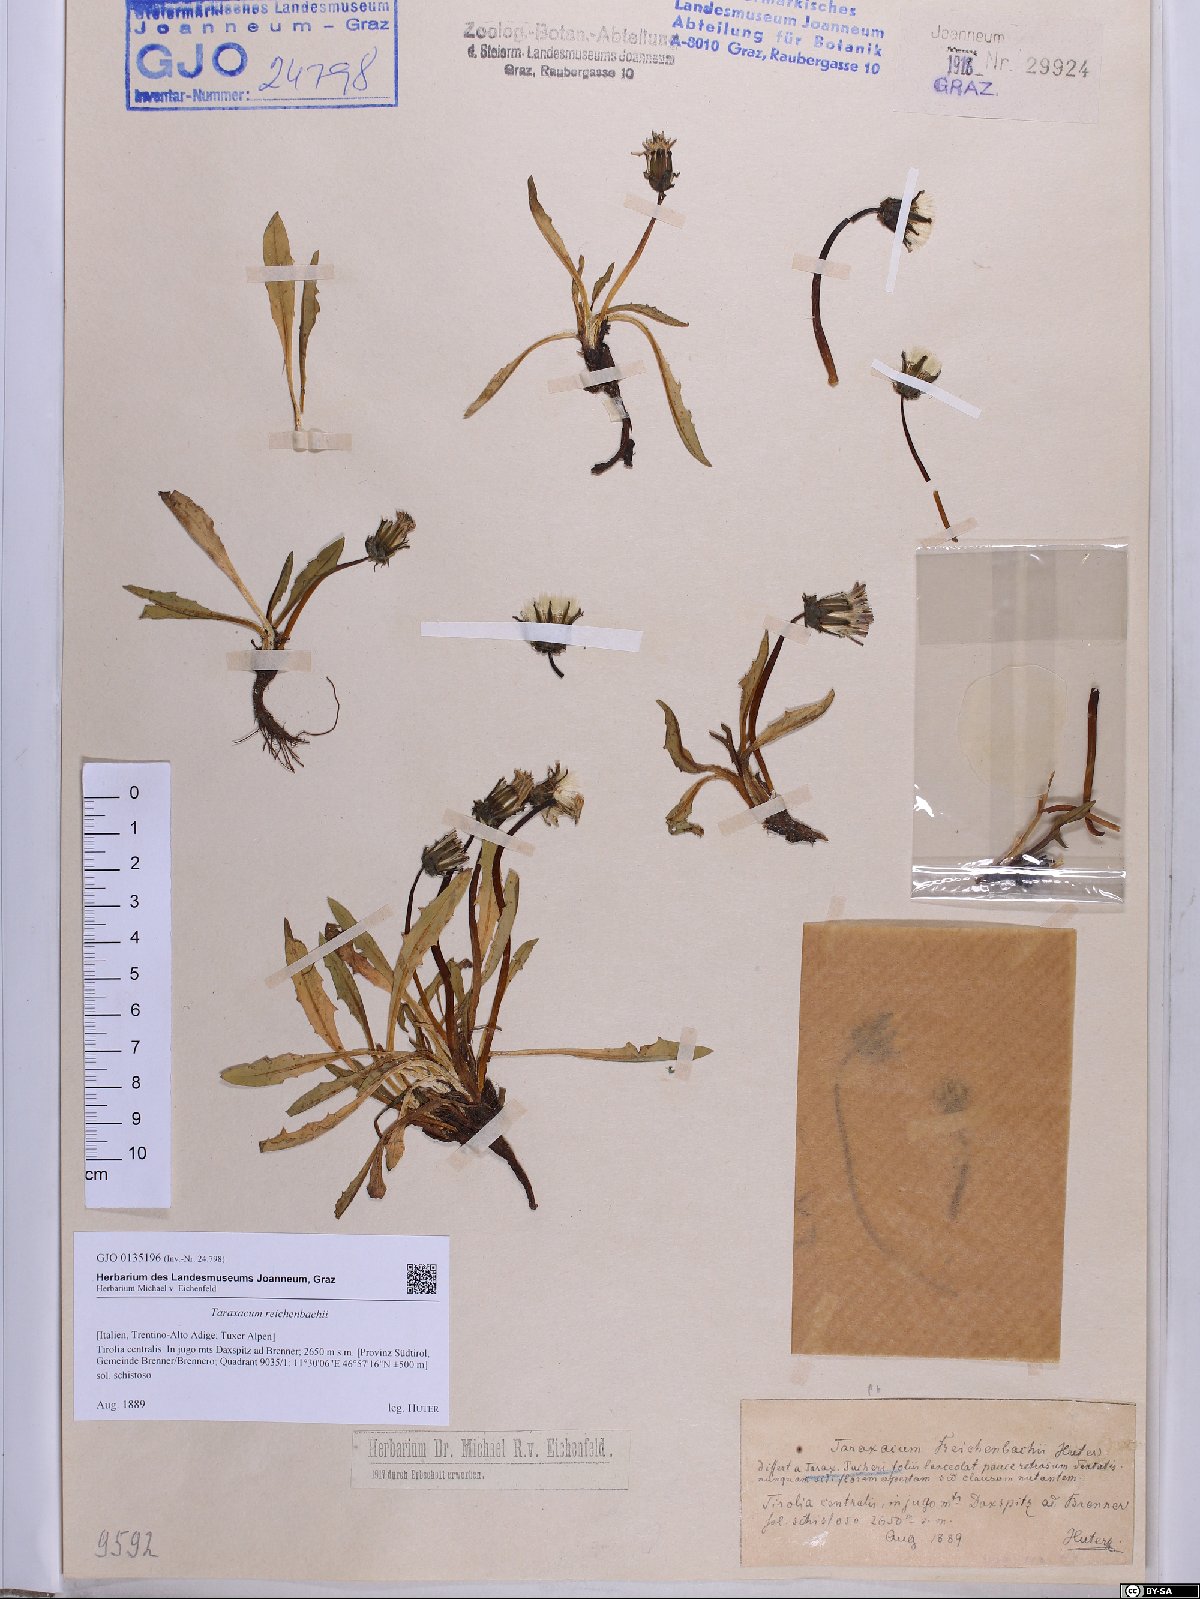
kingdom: Plantae
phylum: Tracheophyta
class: Magnoliopsida
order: Asterales
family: Asteraceae
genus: Taraxacum
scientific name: Taraxacum reichenbachii
